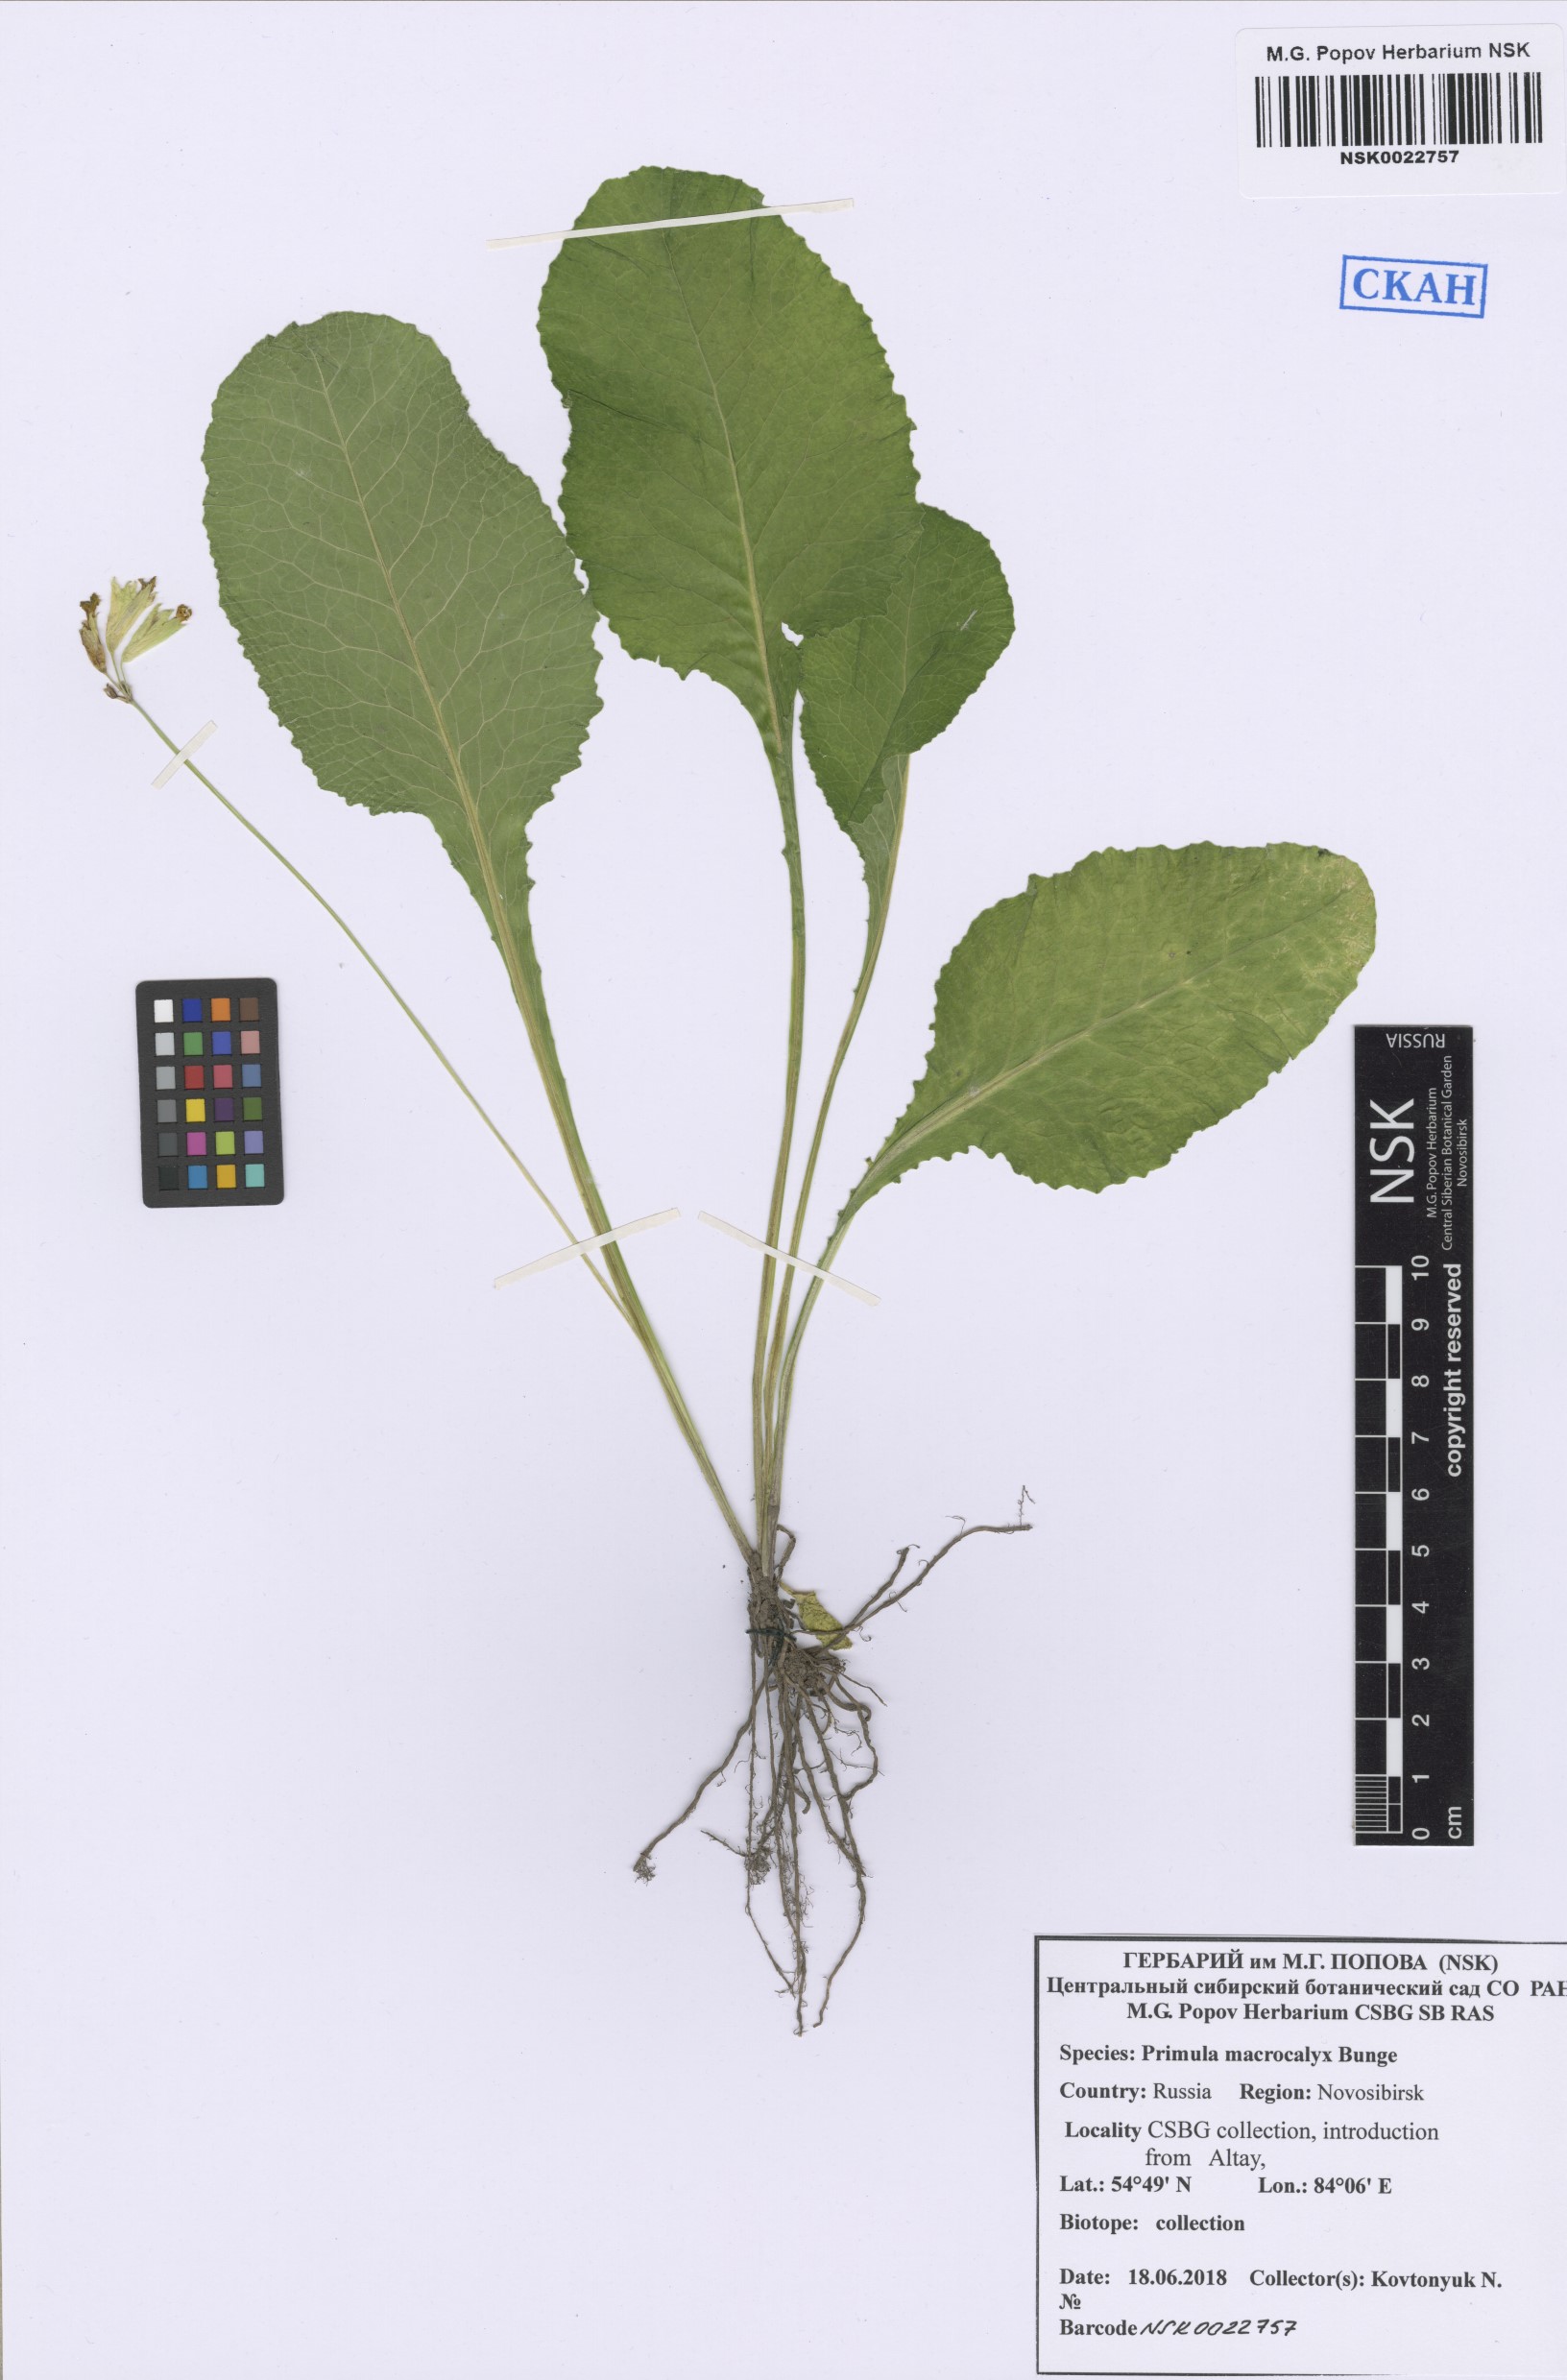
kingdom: Plantae
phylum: Tracheophyta
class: Magnoliopsida
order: Ericales
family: Primulaceae
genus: Primula
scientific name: Primula veris
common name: Cowslip
